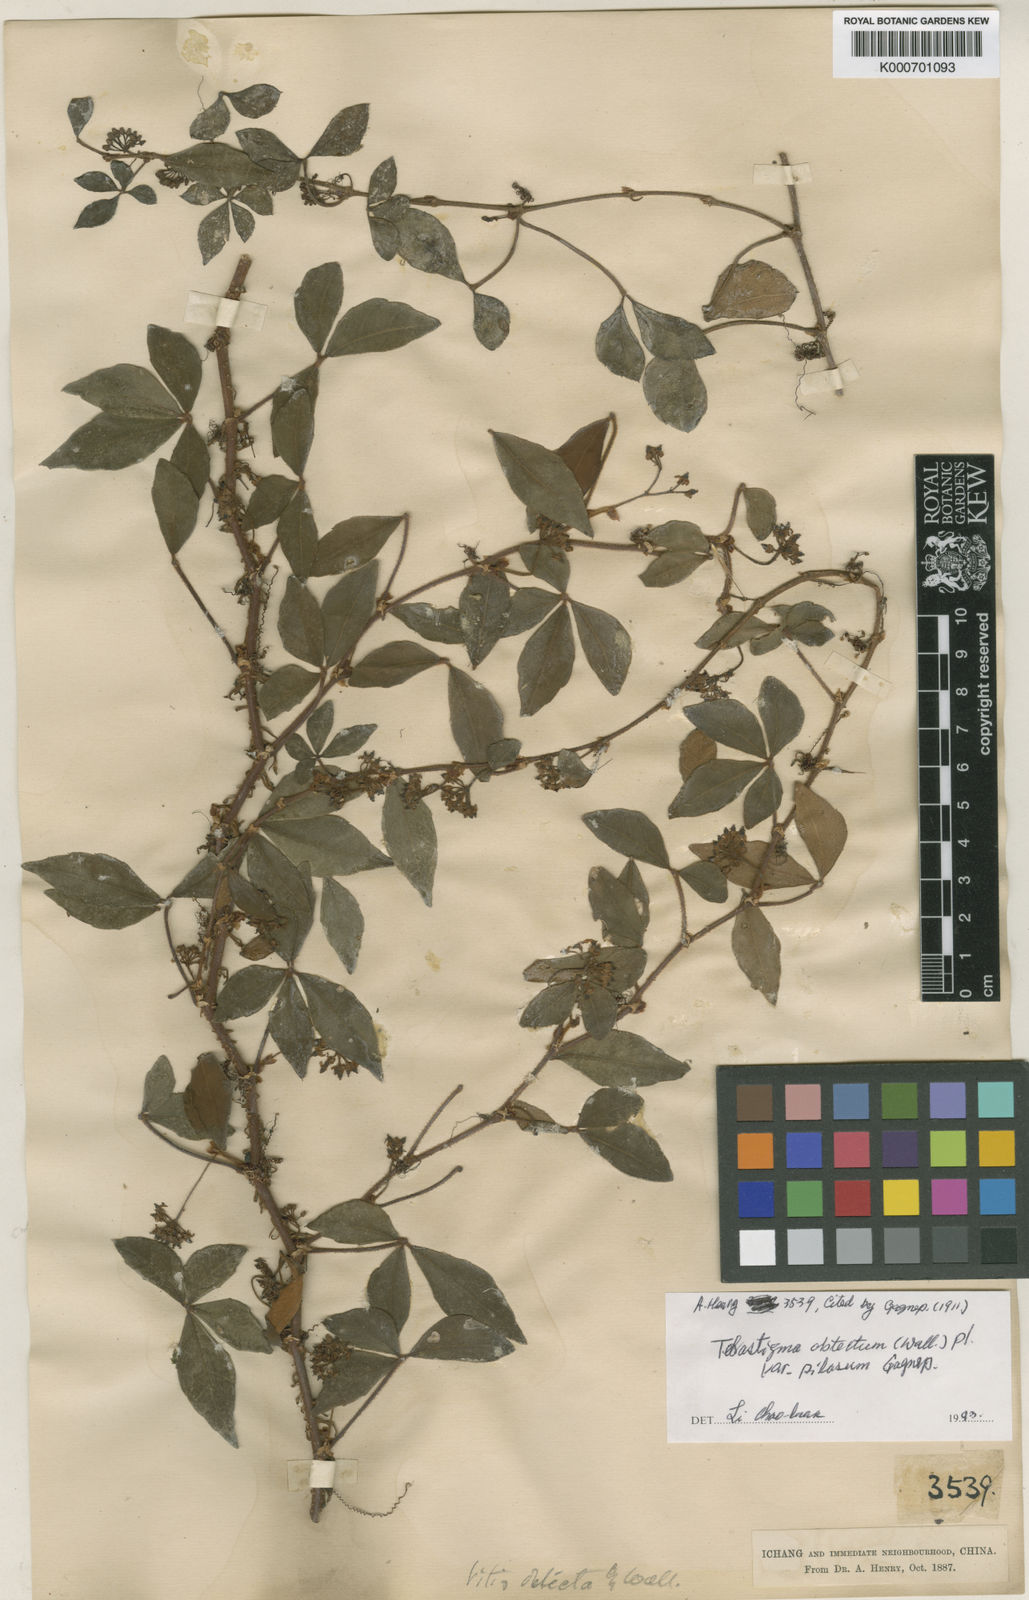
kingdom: Plantae
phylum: Tracheophyta
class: Magnoliopsida
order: Vitales
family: Vitaceae
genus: Tetrastigma
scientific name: Tetrastigma
